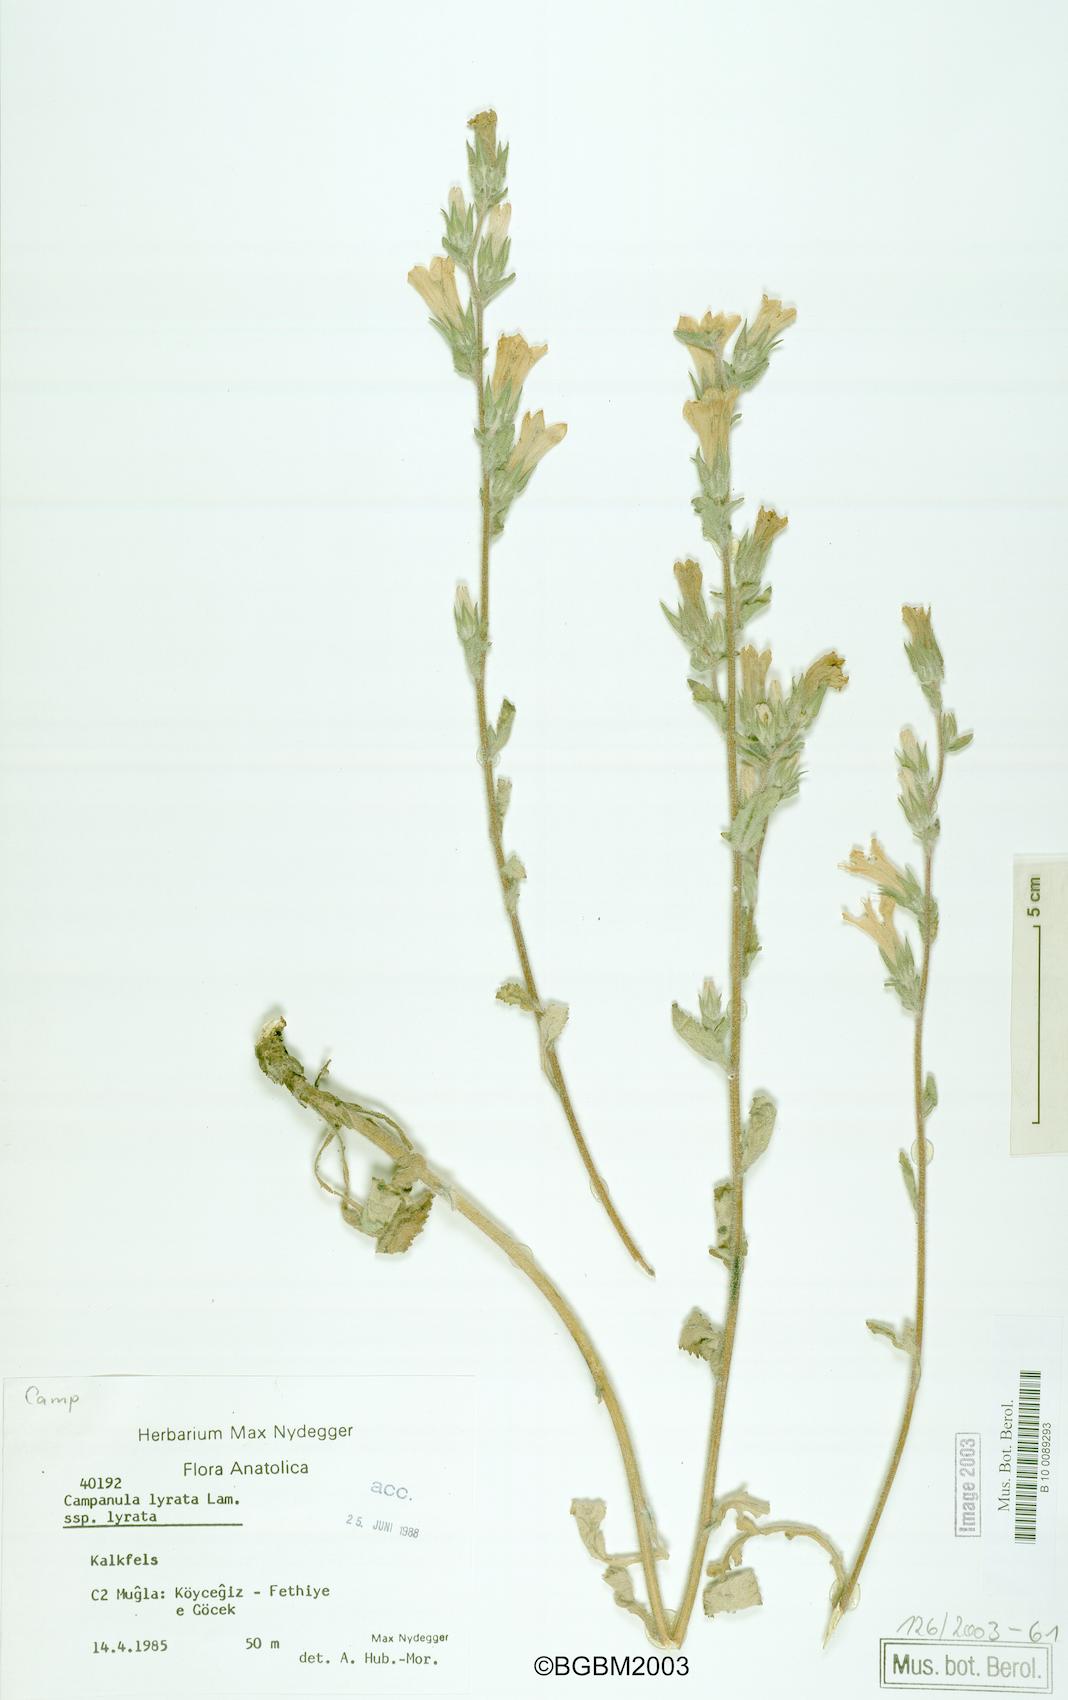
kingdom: Plantae
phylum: Tracheophyta
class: Magnoliopsida
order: Asterales
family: Campanulaceae
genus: Campanula
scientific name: Campanula lyrata
